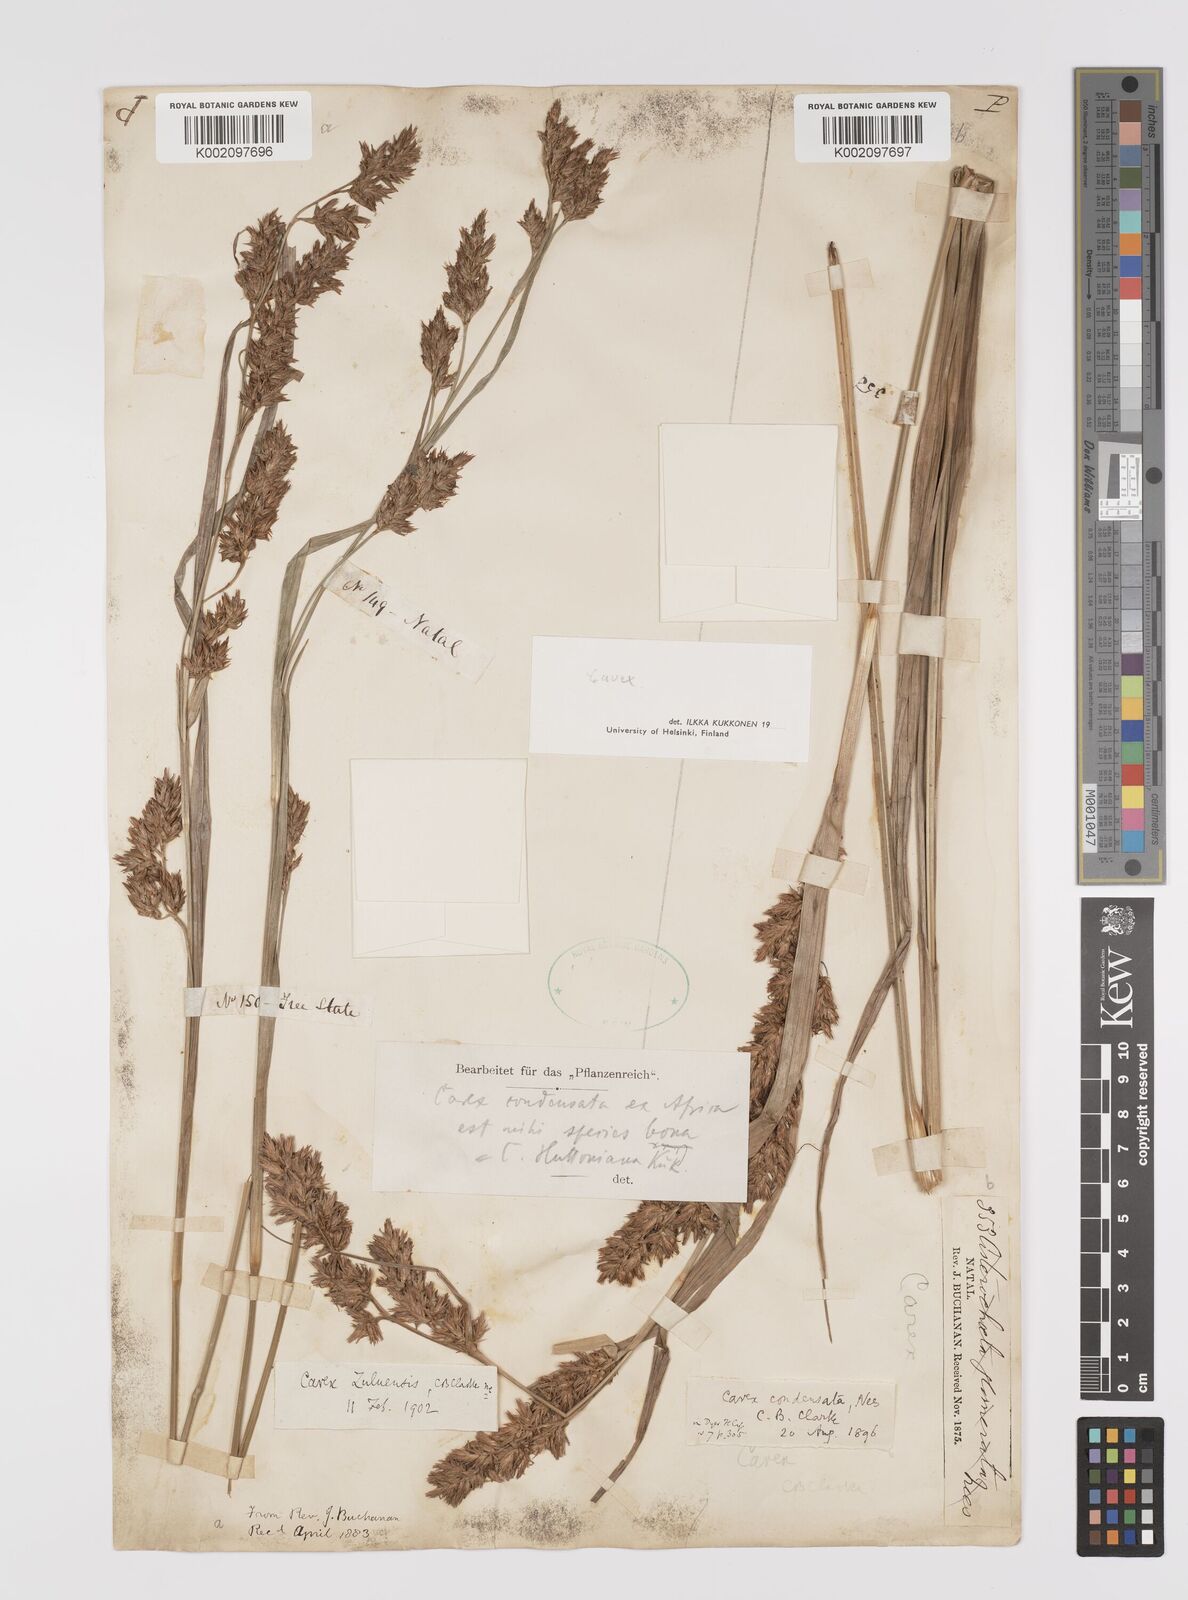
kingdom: Plantae
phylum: Tracheophyta
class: Liliopsida
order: Poales
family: Cyperaceae
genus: Carex
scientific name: Carex
